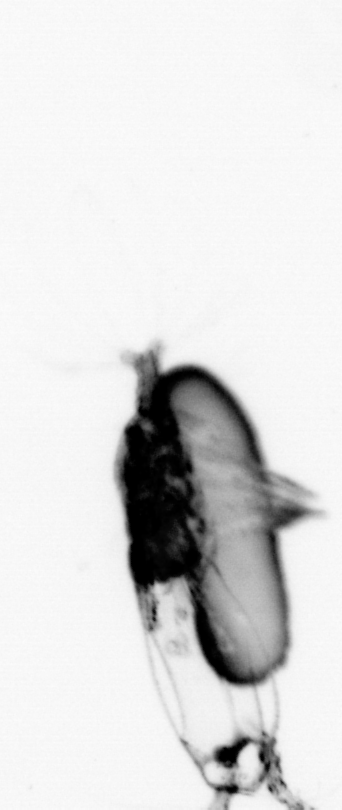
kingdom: Animalia
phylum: Arthropoda
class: Copepoda
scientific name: Copepoda
